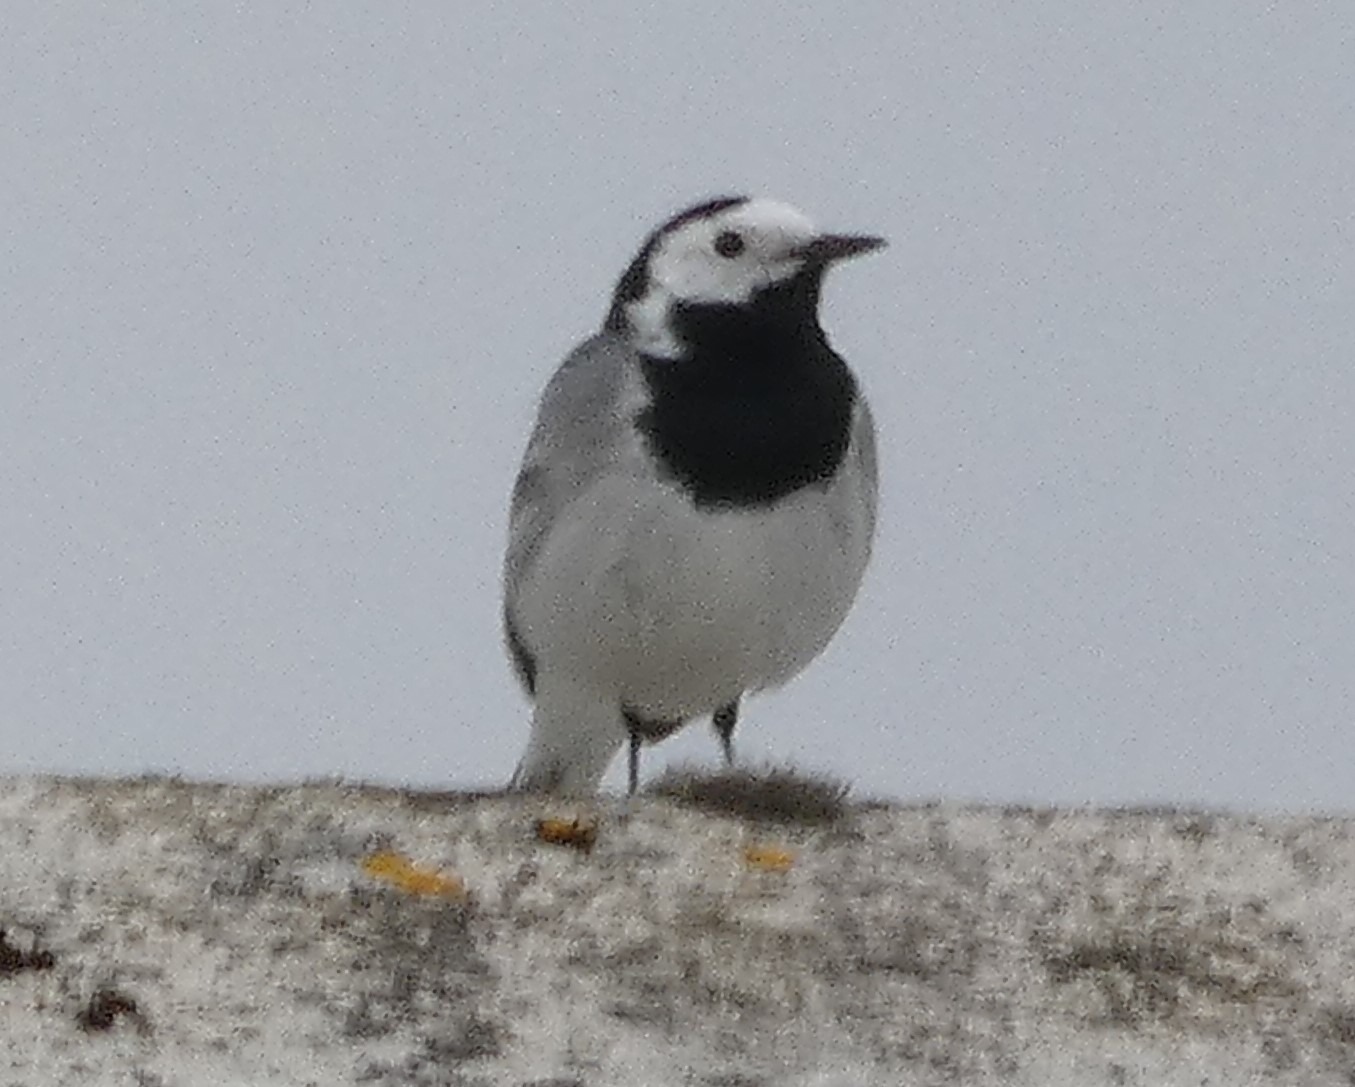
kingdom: Animalia
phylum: Chordata
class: Aves
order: Passeriformes
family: Motacillidae
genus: Motacilla
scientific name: Motacilla alba
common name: Hvid vipstjert
